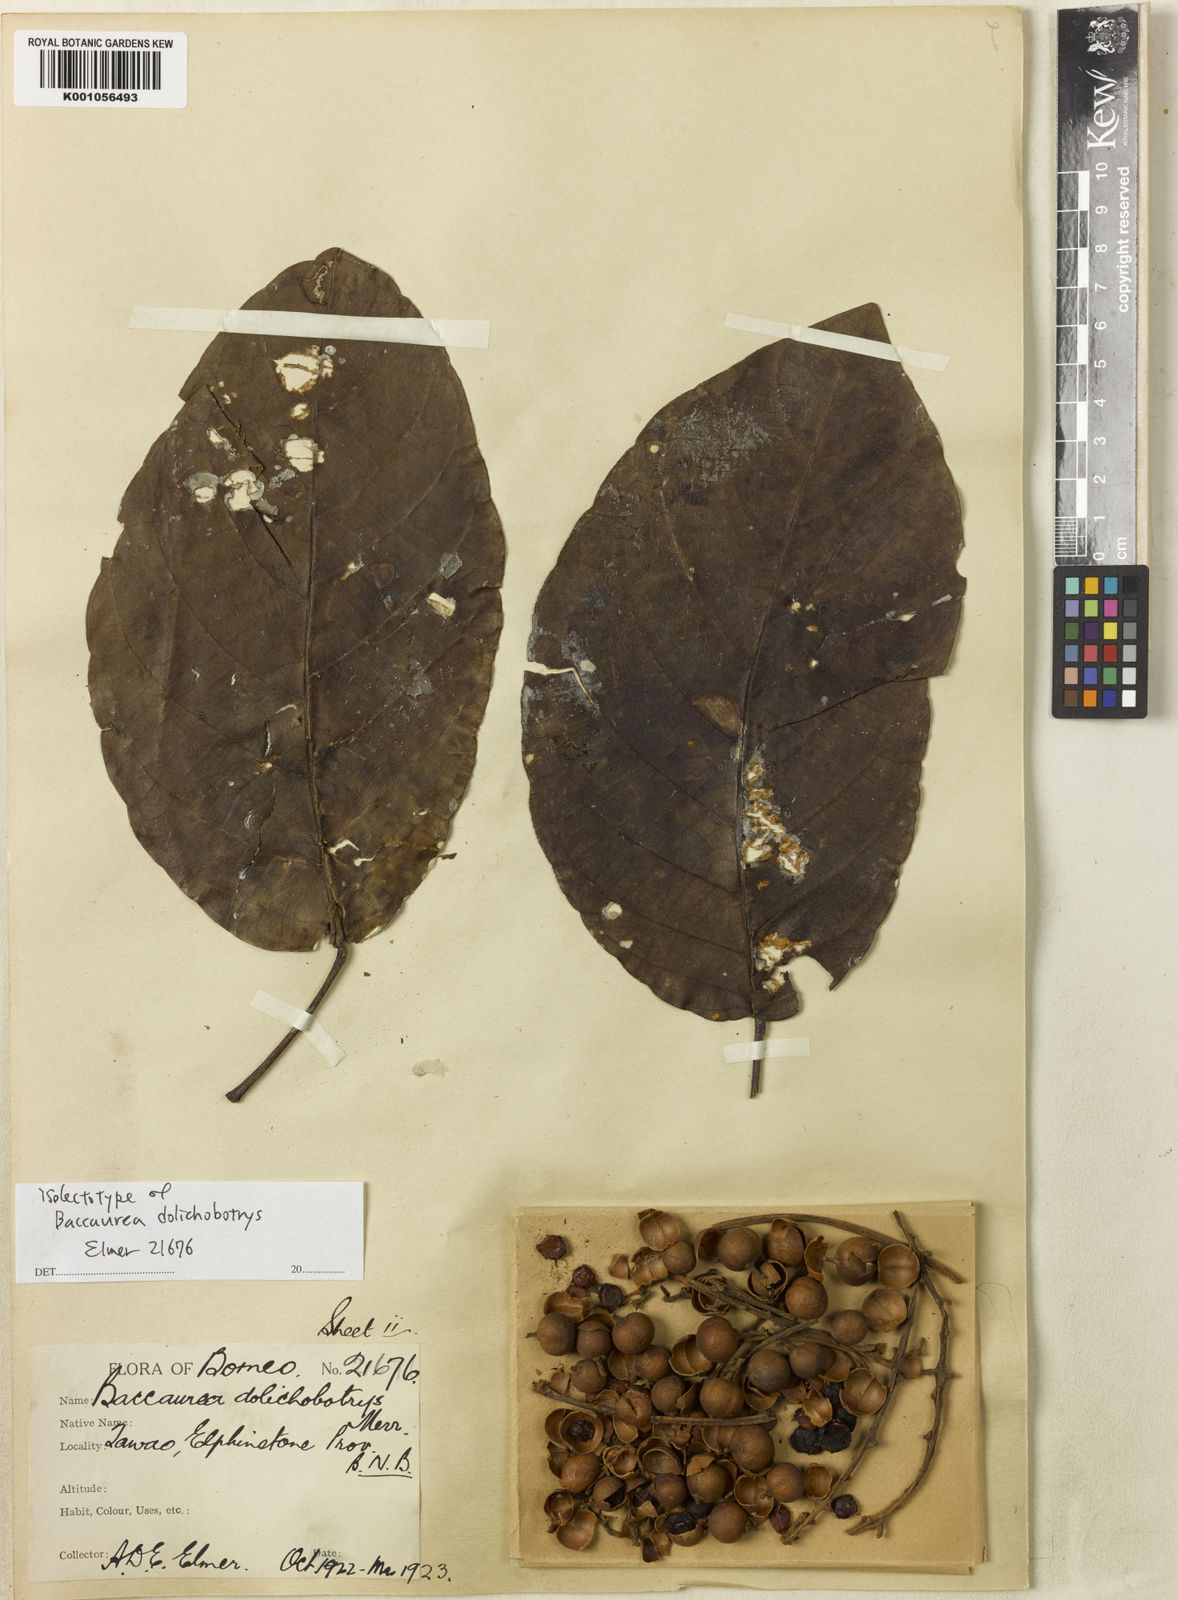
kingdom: Plantae
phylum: Tracheophyta
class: Magnoliopsida
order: Malpighiales
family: Phyllanthaceae
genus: Baccaurea
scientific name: Baccaurea polyneura
